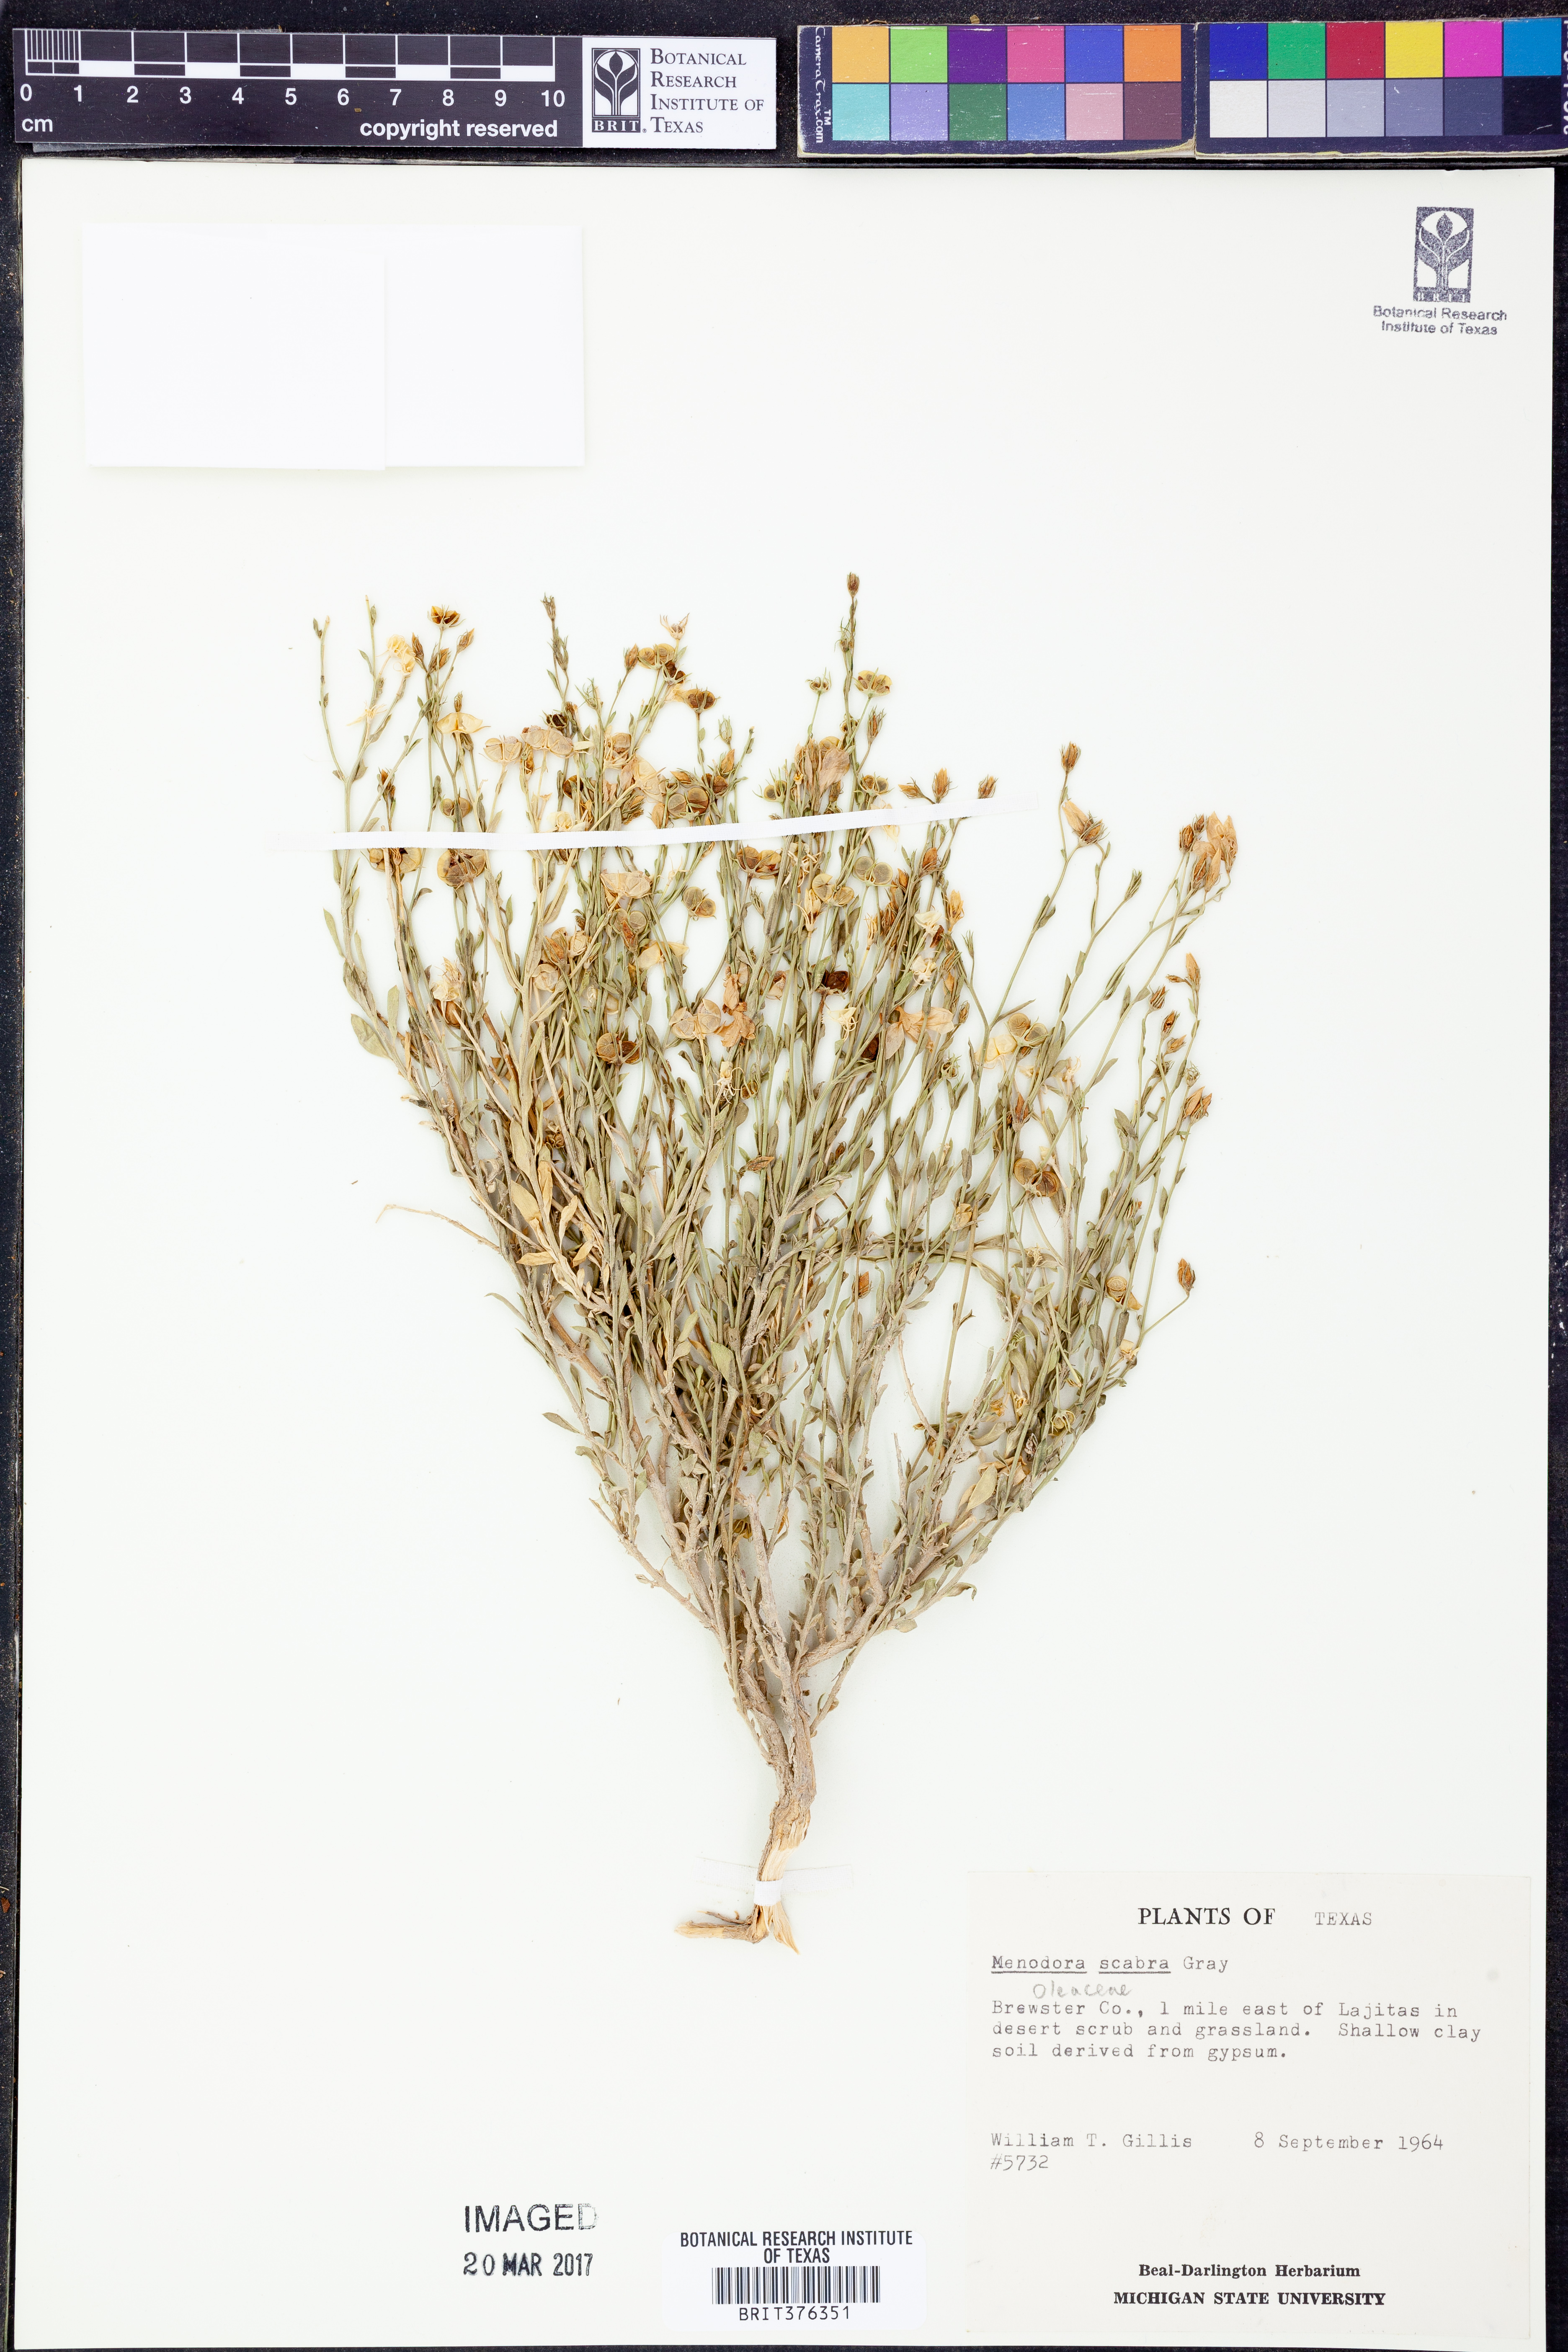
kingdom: Plantae
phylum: Tracheophyta
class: Magnoliopsida
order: Lamiales
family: Oleaceae
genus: Menodora
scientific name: Menodora scabra
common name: Rough menodora
